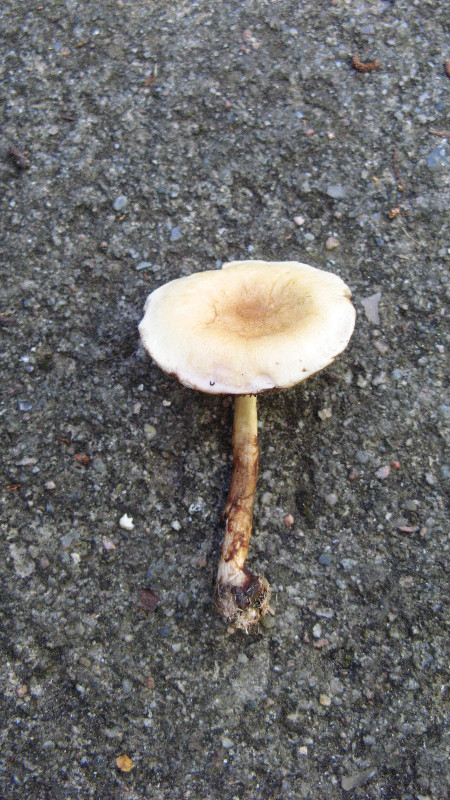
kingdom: Fungi
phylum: Basidiomycota
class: Agaricomycetes
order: Agaricales
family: Strophariaceae
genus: Protostropharia
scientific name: Protostropharia semiglobata
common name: halvkugleformet bredblad
